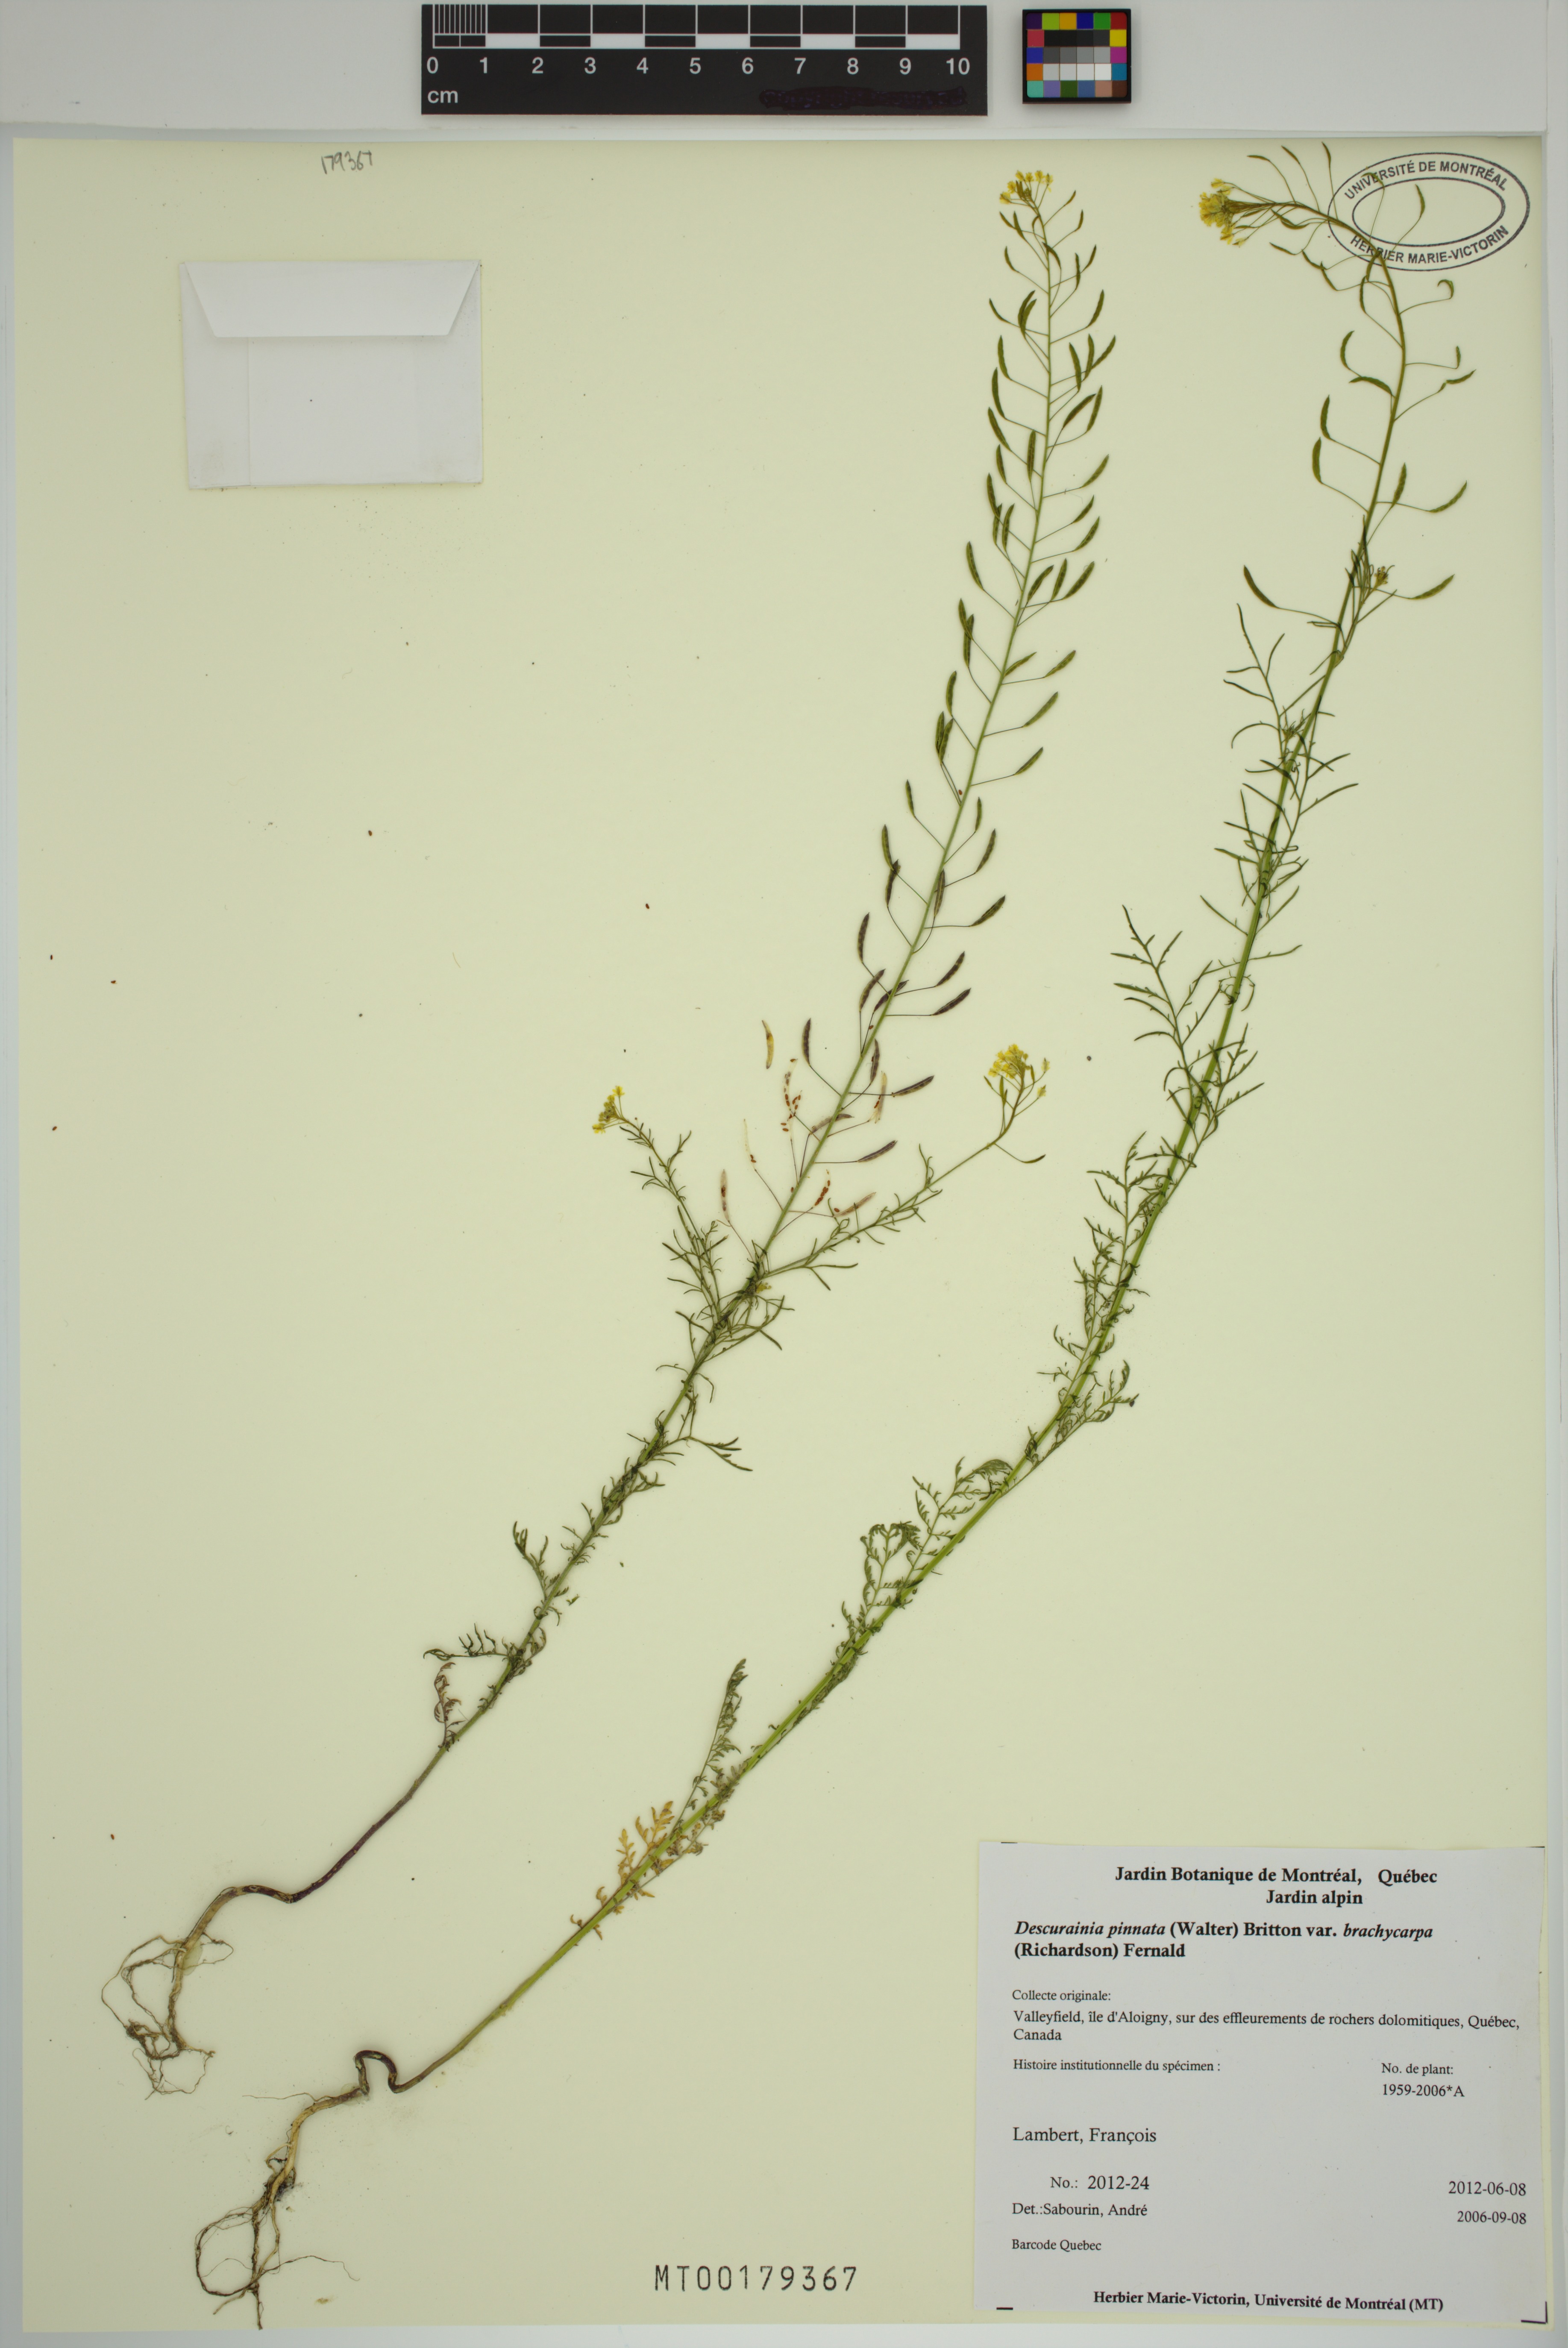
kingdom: Plantae
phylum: Tracheophyta
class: Magnoliopsida
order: Brassicales
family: Brassicaceae
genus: Descurainia
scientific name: Descurainia pinnata
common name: Western tansy mustard
